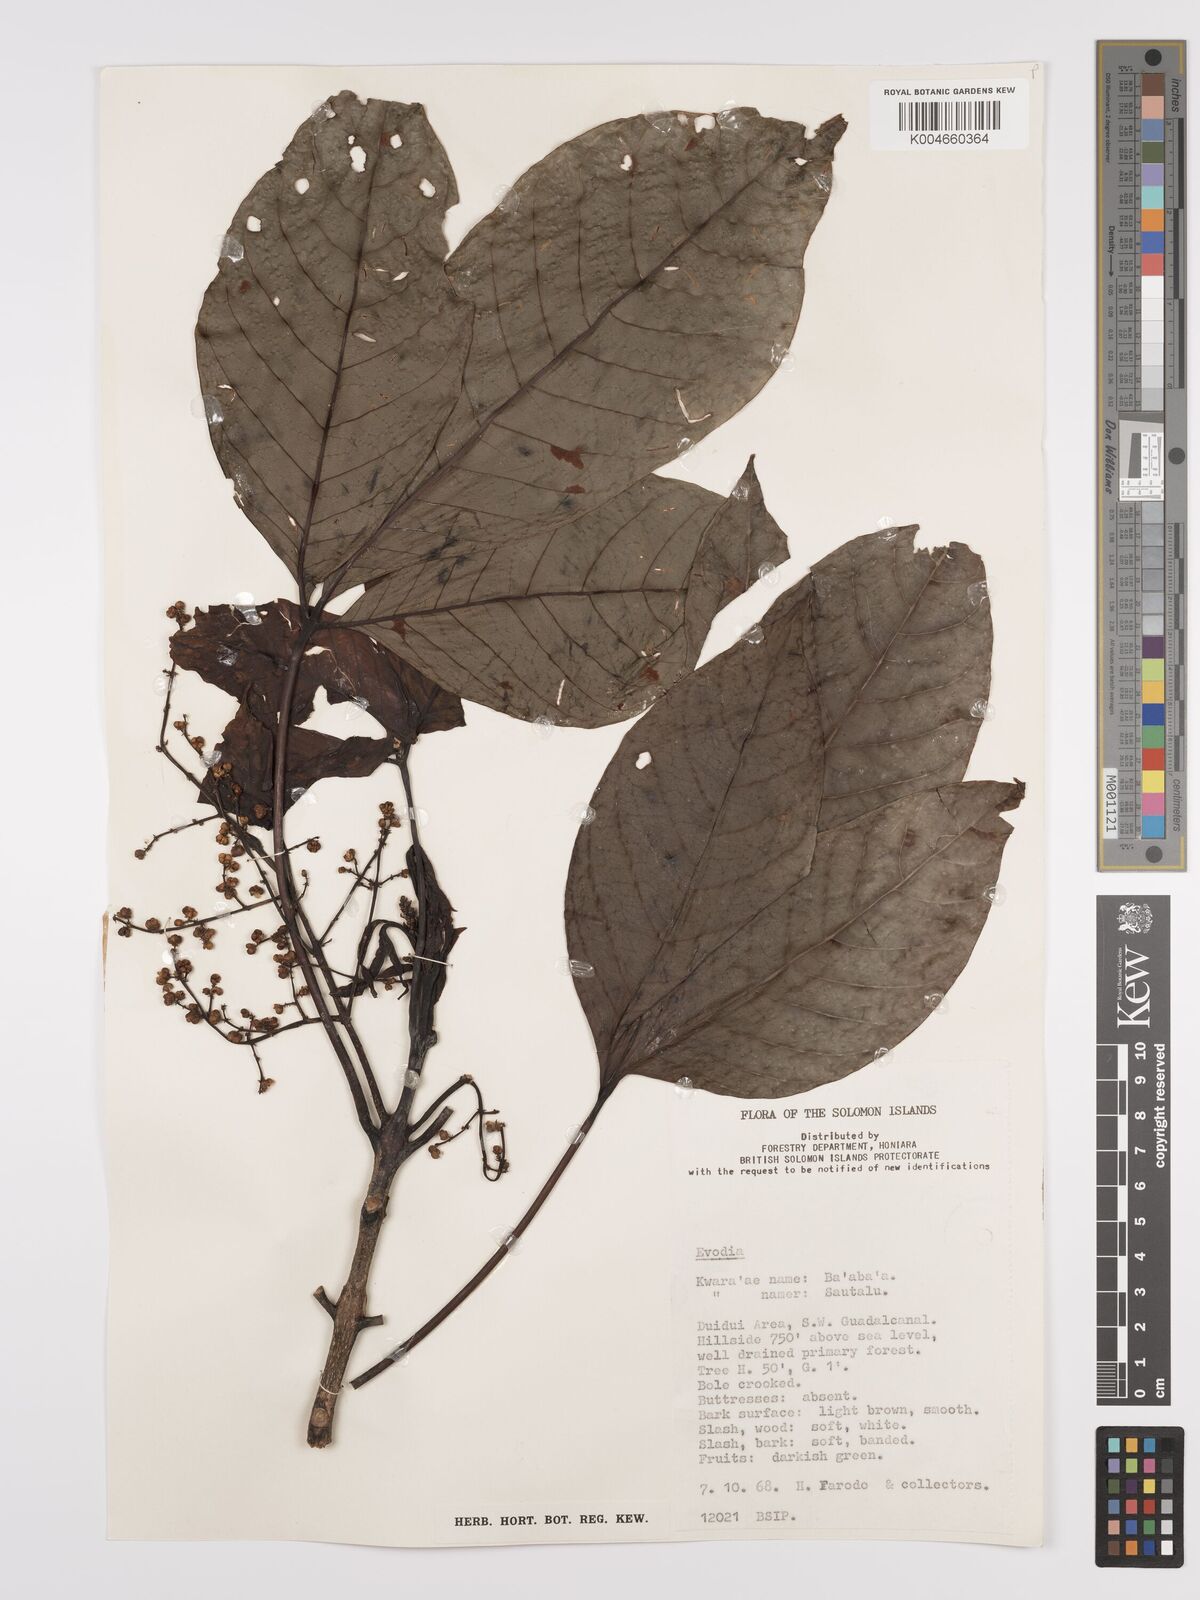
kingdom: Plantae
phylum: Tracheophyta
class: Magnoliopsida
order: Sapindales
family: Rutaceae
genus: Euodia
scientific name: Euodia
